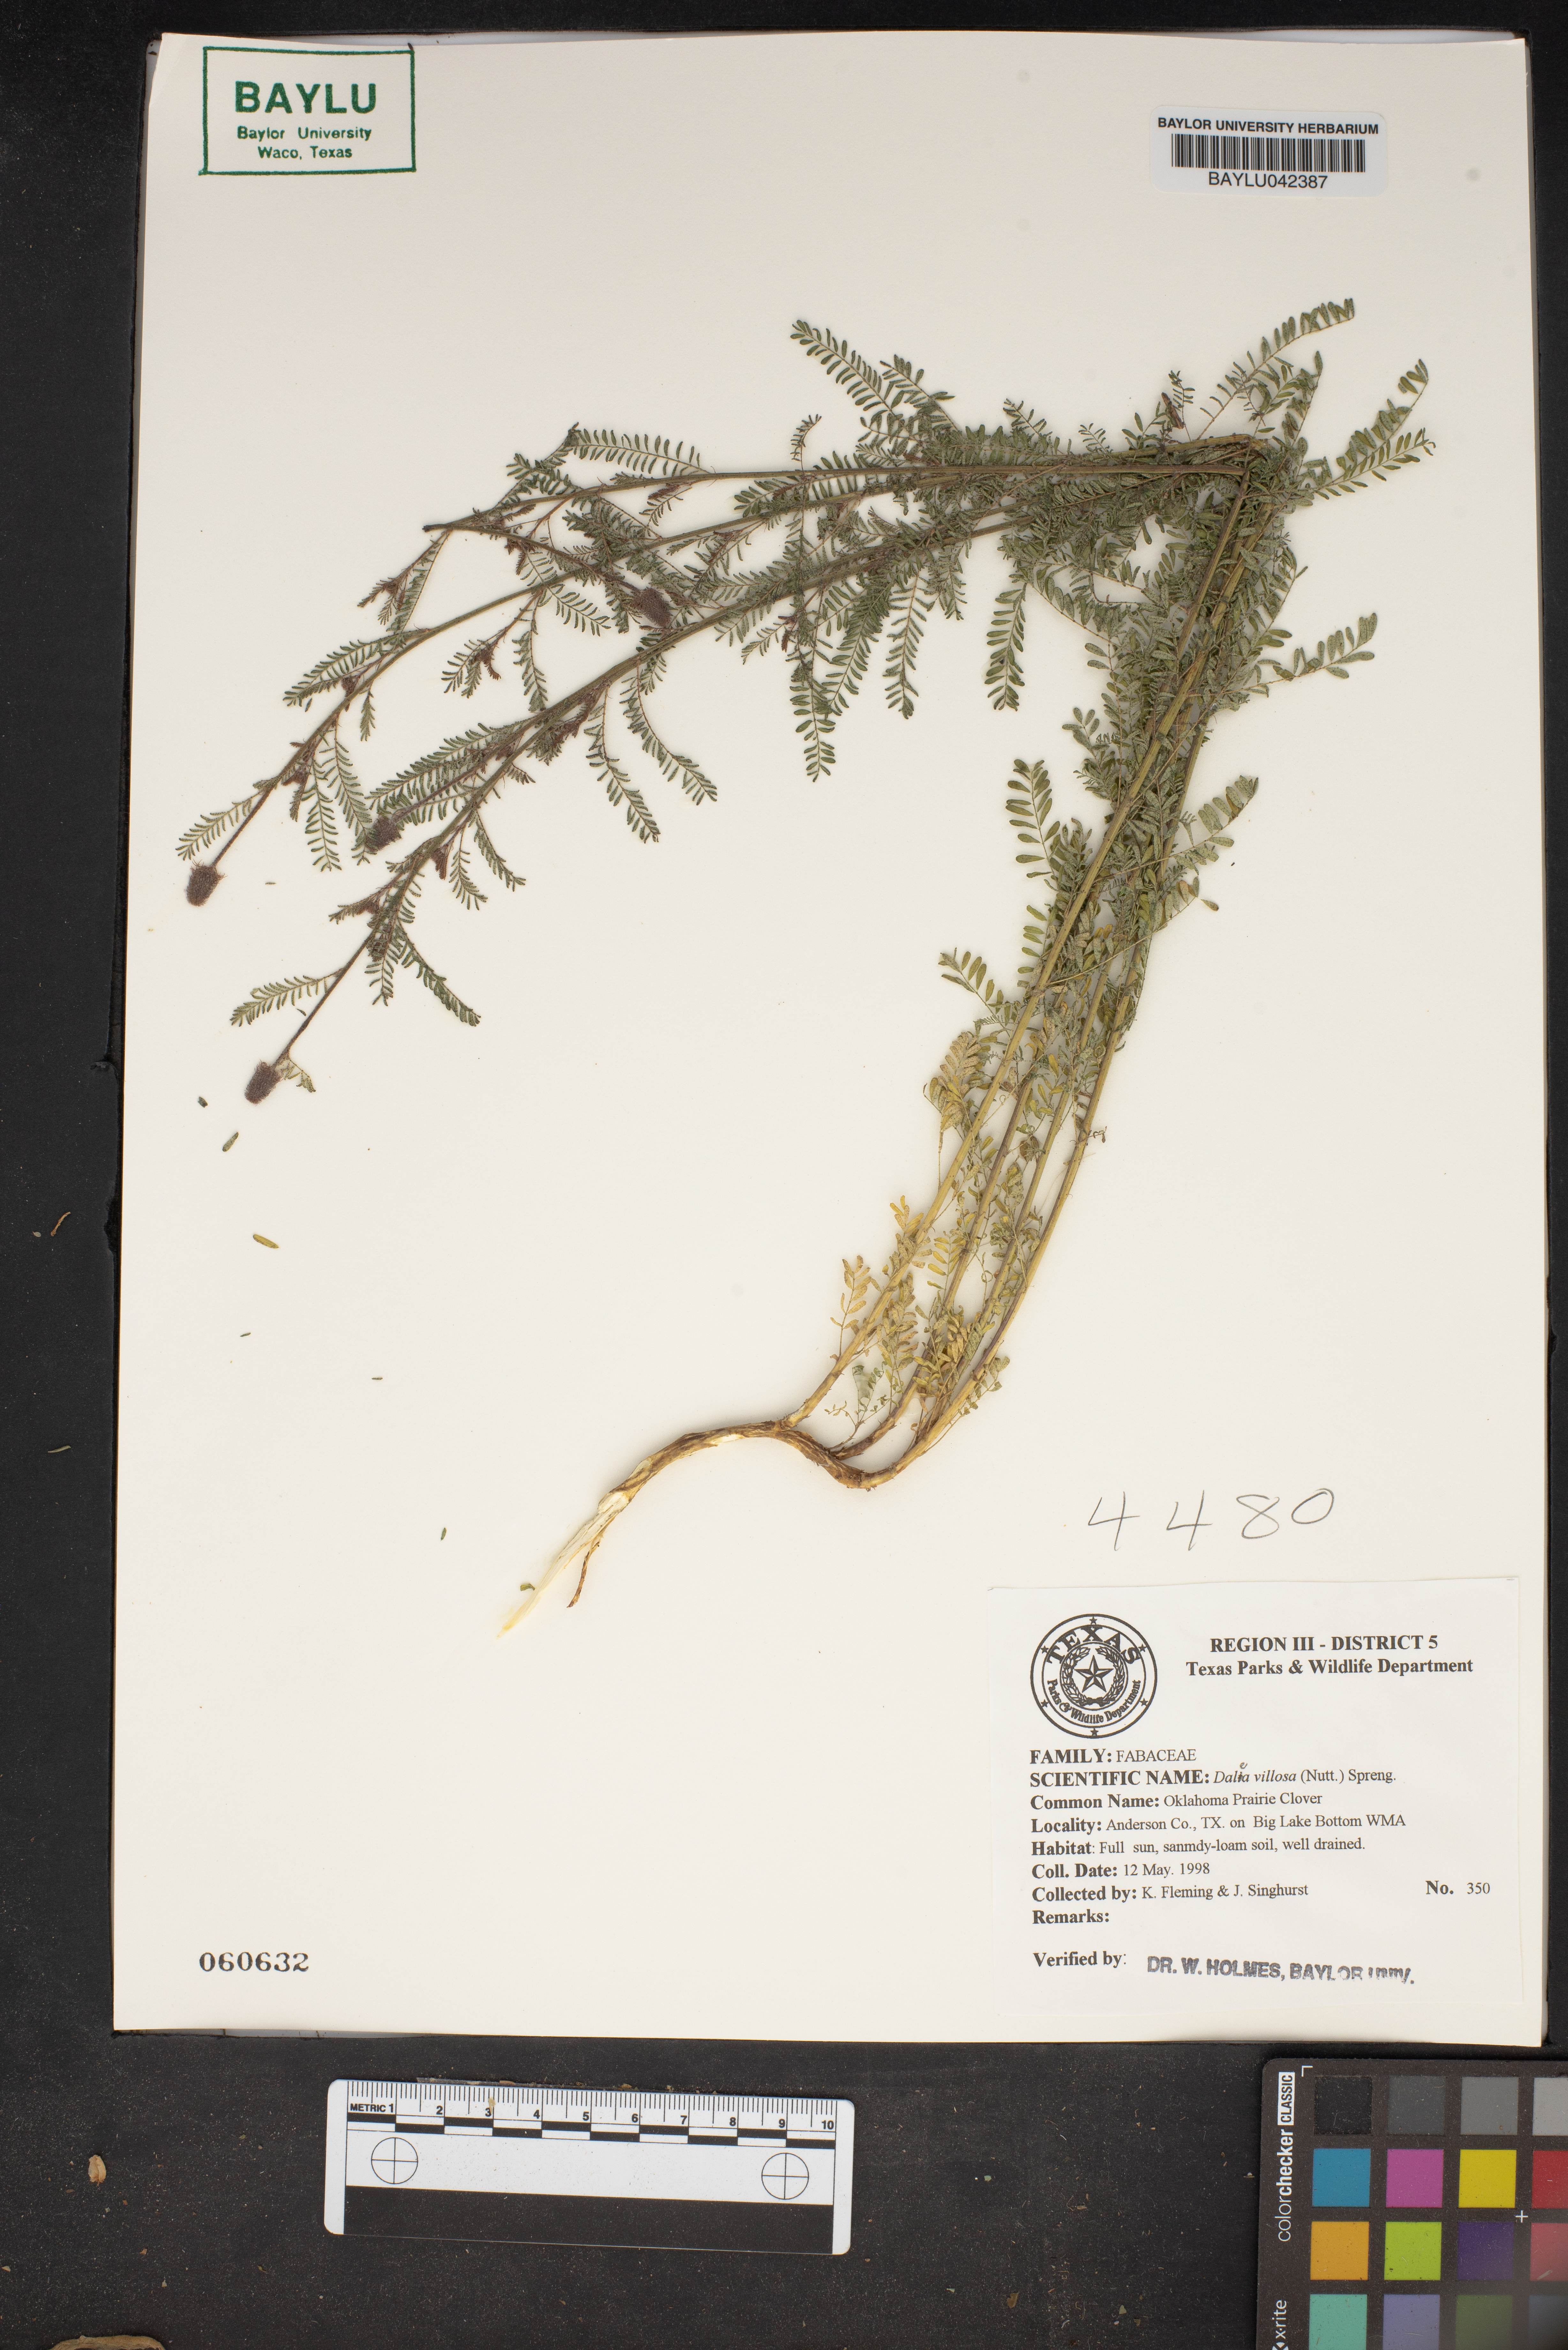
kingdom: Plantae
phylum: Tracheophyta
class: Magnoliopsida
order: Fabales
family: Fabaceae
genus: Dalea
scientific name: Dalea villosa
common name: Silky prairie-clover
